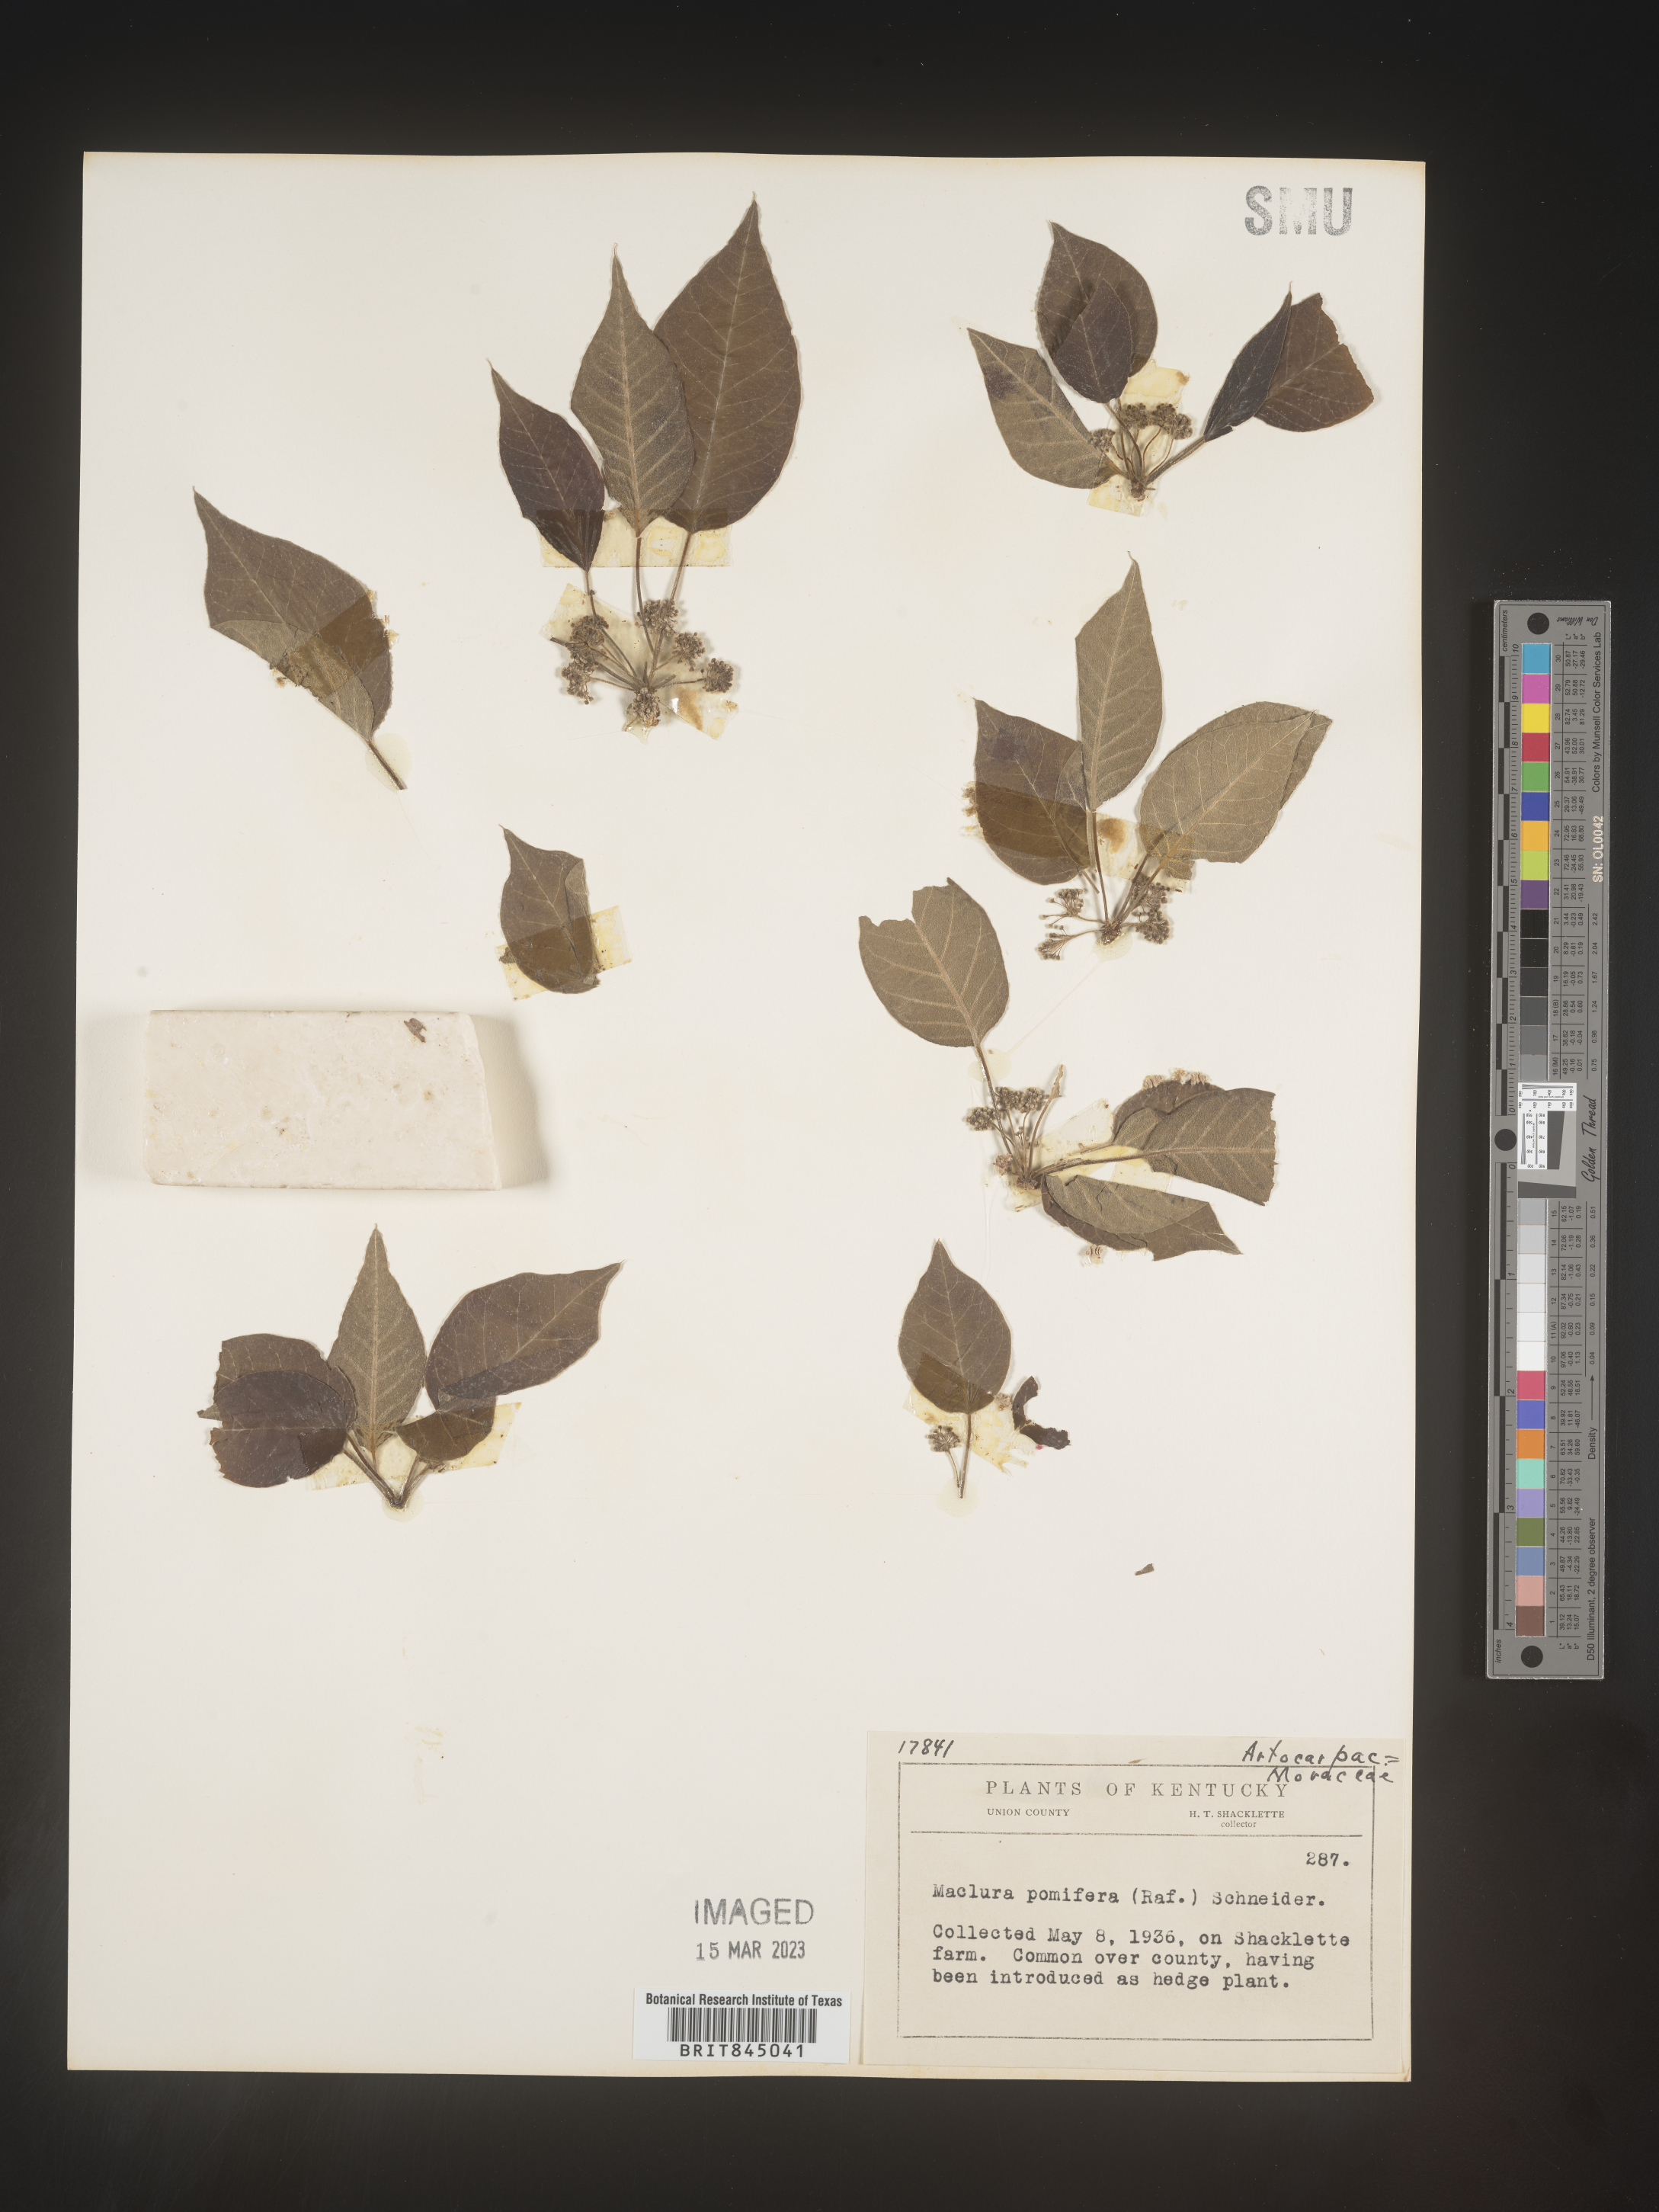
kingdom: Plantae
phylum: Tracheophyta
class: Magnoliopsida
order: Rosales
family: Moraceae
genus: Maclura
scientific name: Maclura pomifera
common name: Osage-orange
